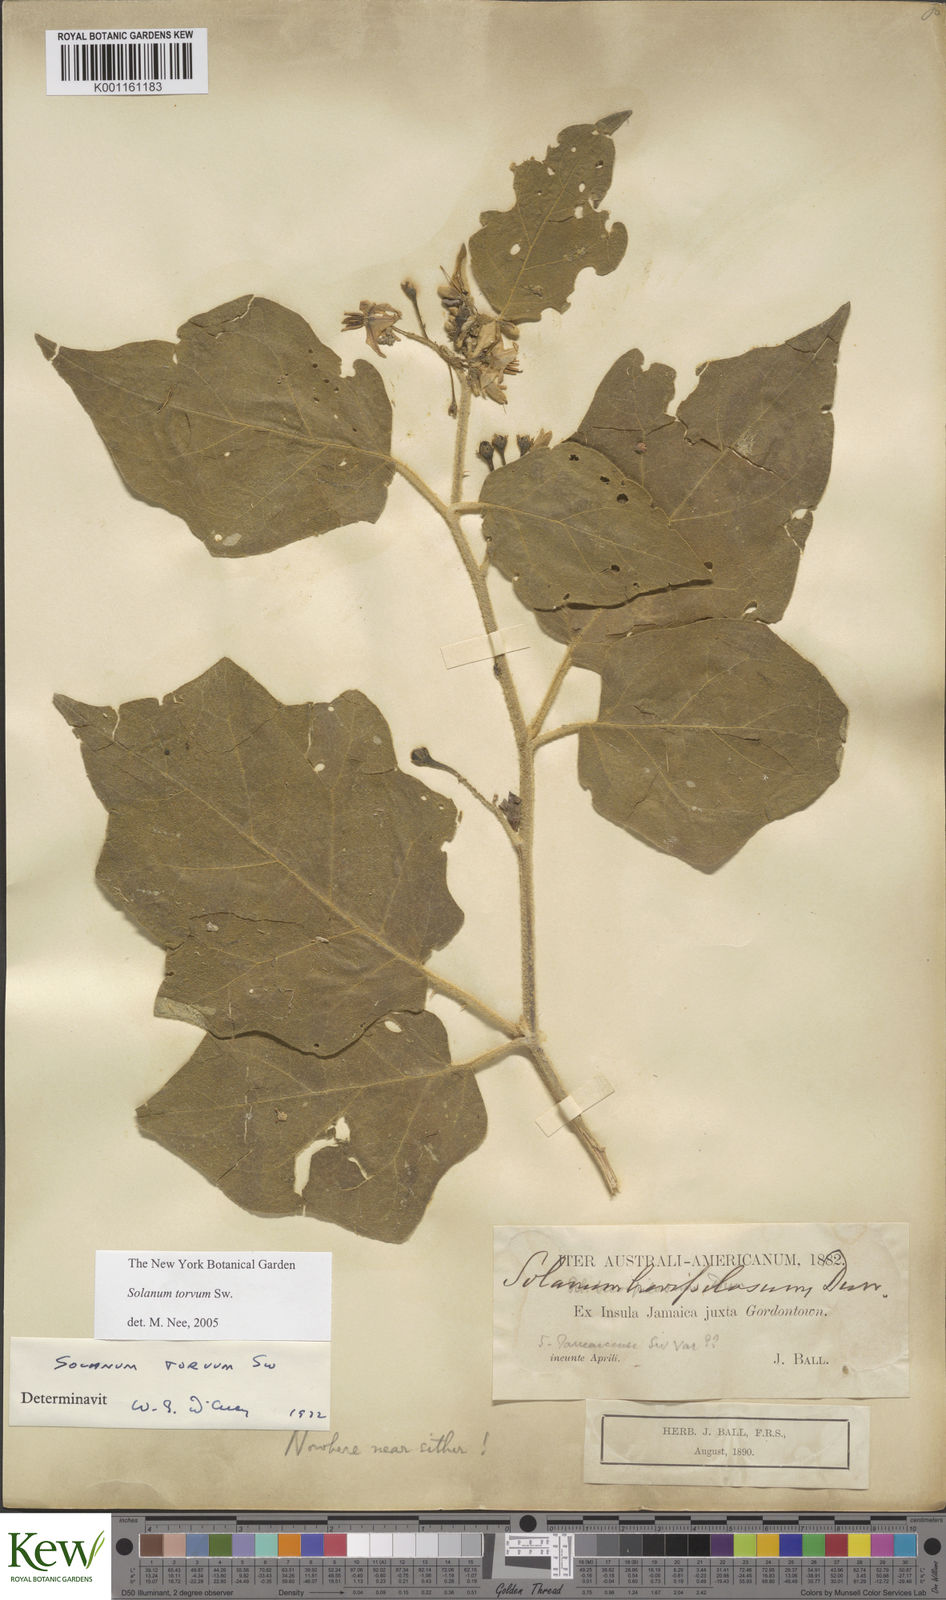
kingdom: Plantae
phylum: Tracheophyta
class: Magnoliopsida
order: Solanales
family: Solanaceae
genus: Solanum
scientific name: Solanum torvum
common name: Turkey berry
